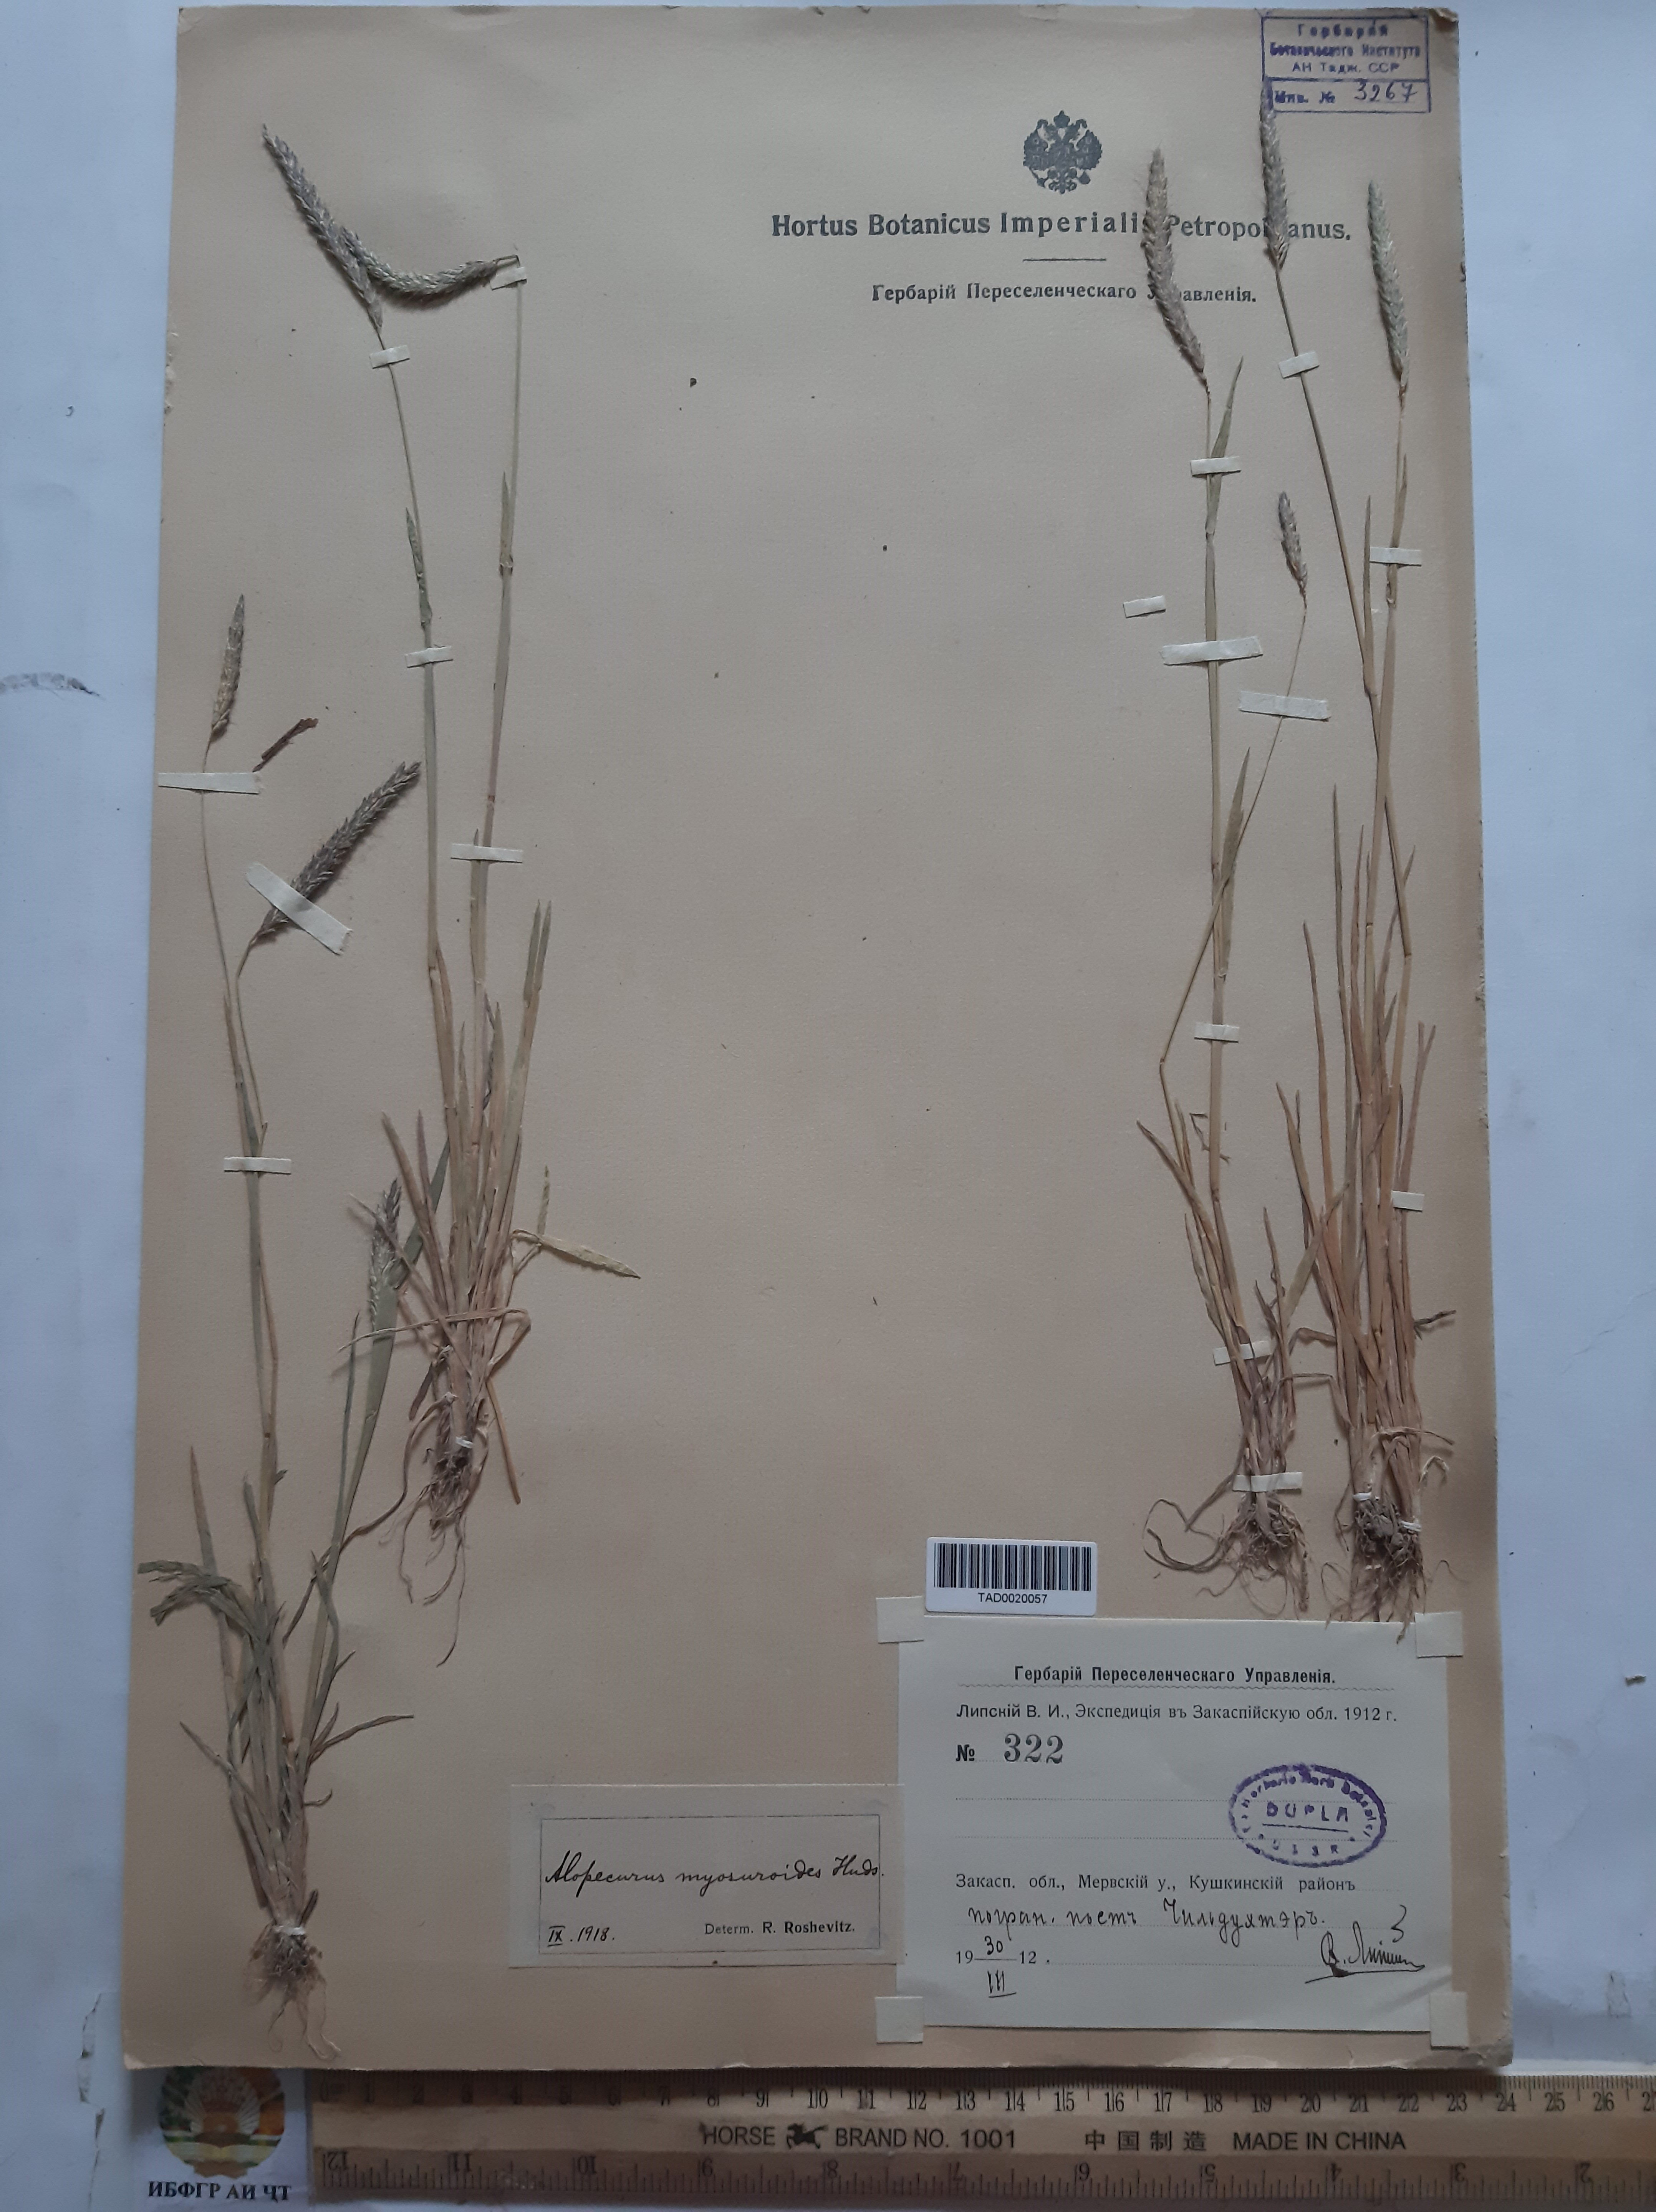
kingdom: Plantae
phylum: Tracheophyta
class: Liliopsida
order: Poales
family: Poaceae
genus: Alopecurus
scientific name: Alopecurus myosuroides
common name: Black-grass
